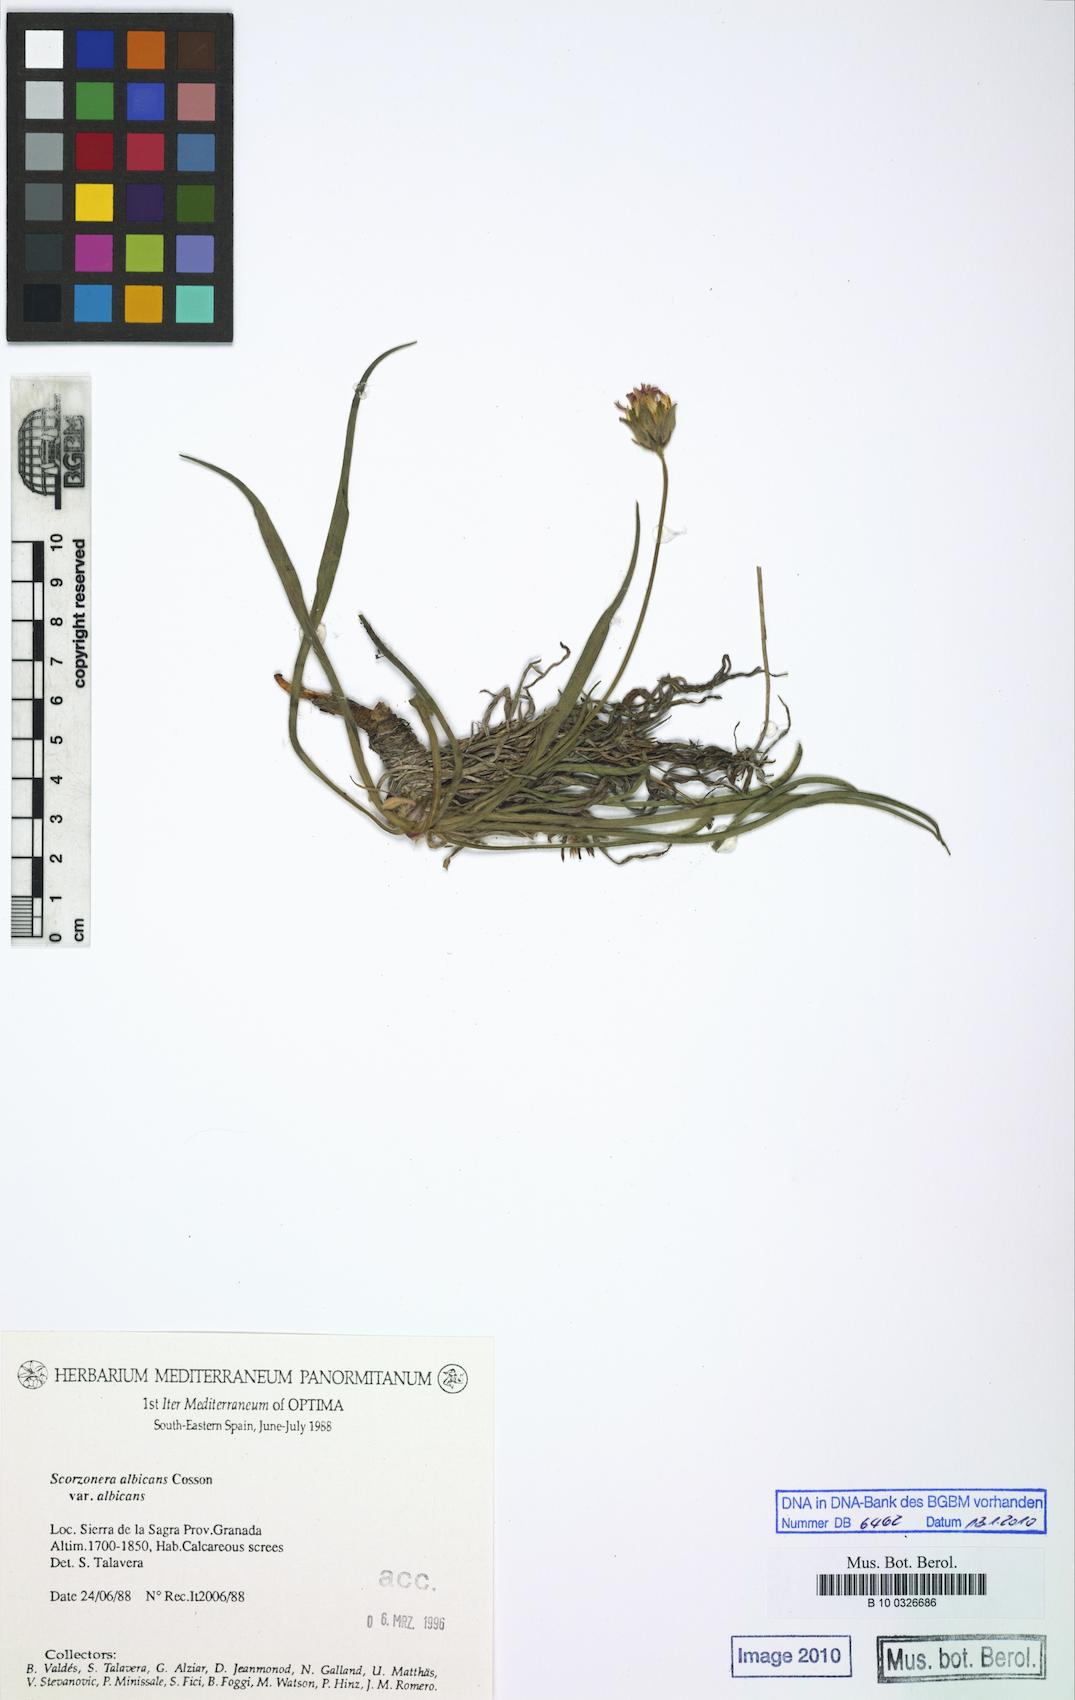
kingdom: Plantae
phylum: Tracheophyta
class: Magnoliopsida
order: Asterales
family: Asteraceae
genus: Gelasia
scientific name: Gelasia albicans
